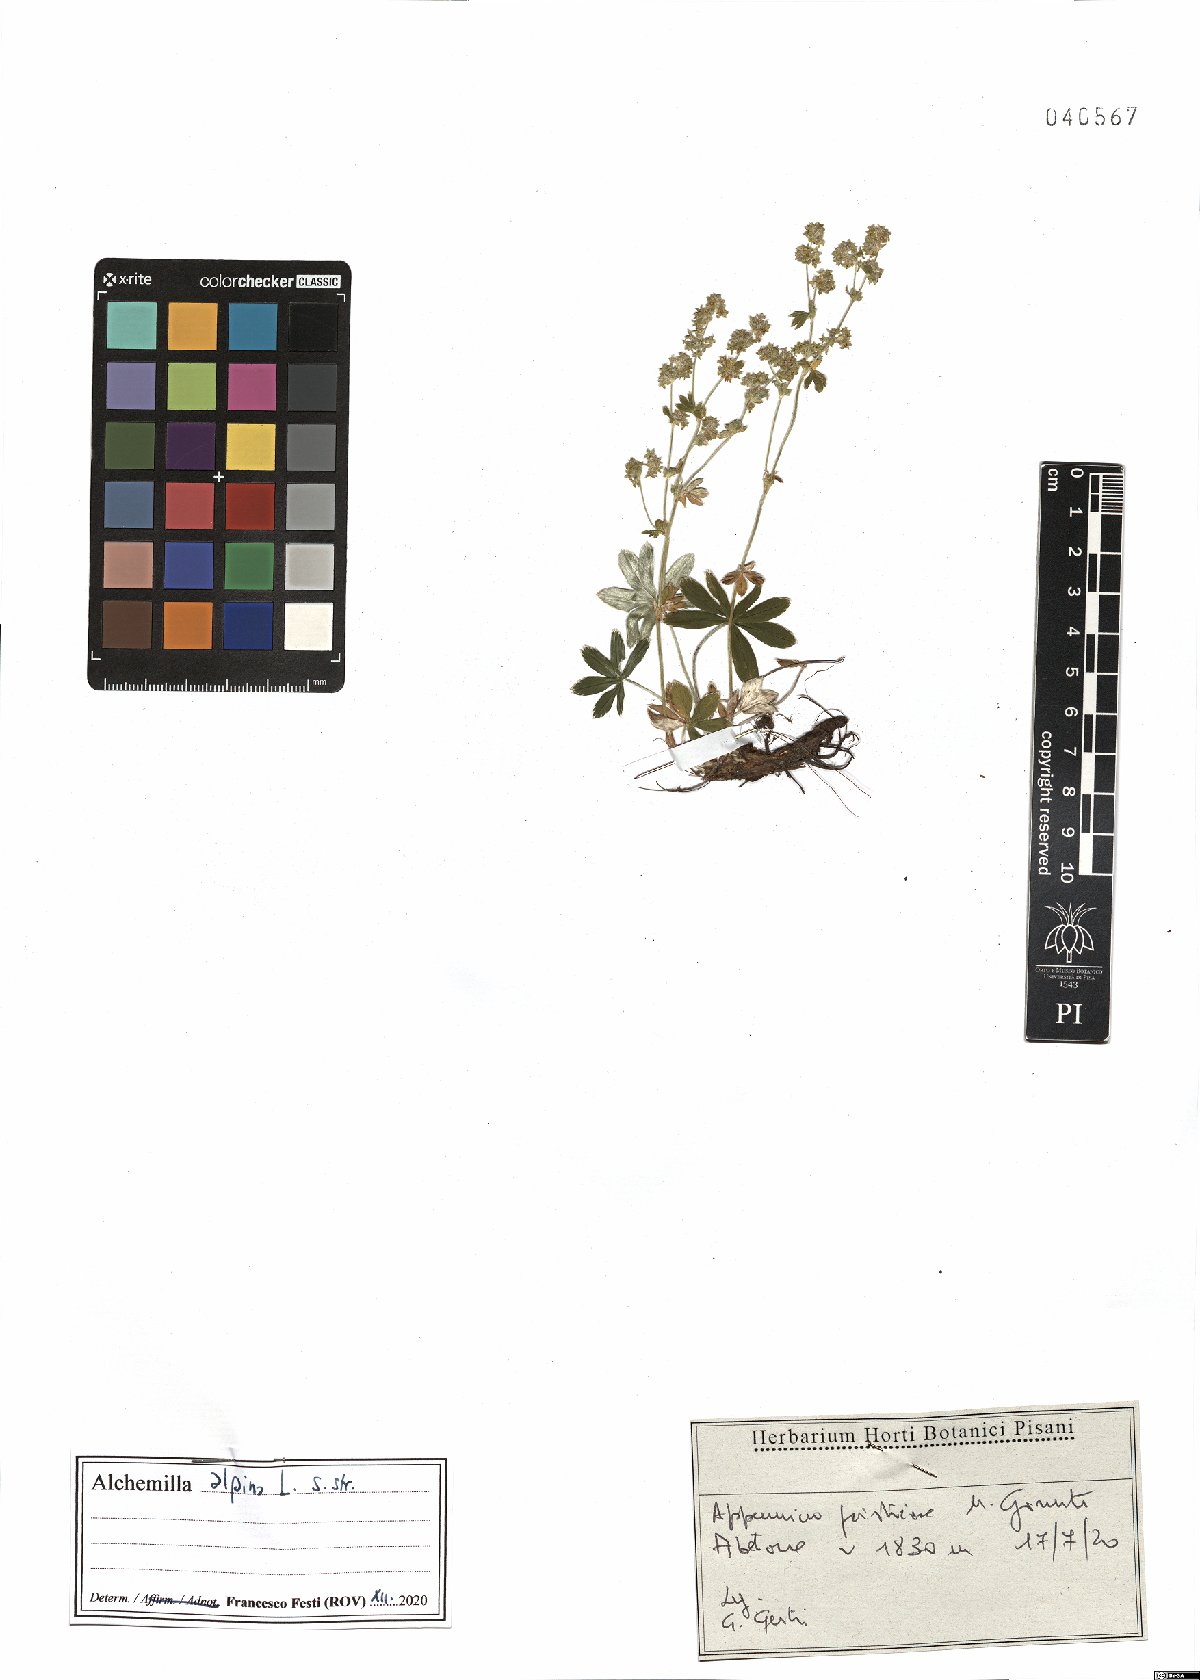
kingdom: Plantae
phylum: Tracheophyta
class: Magnoliopsida
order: Rosales
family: Rosaceae
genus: Alchemilla
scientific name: Alchemilla alpina
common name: Alpine lady's-mantle
